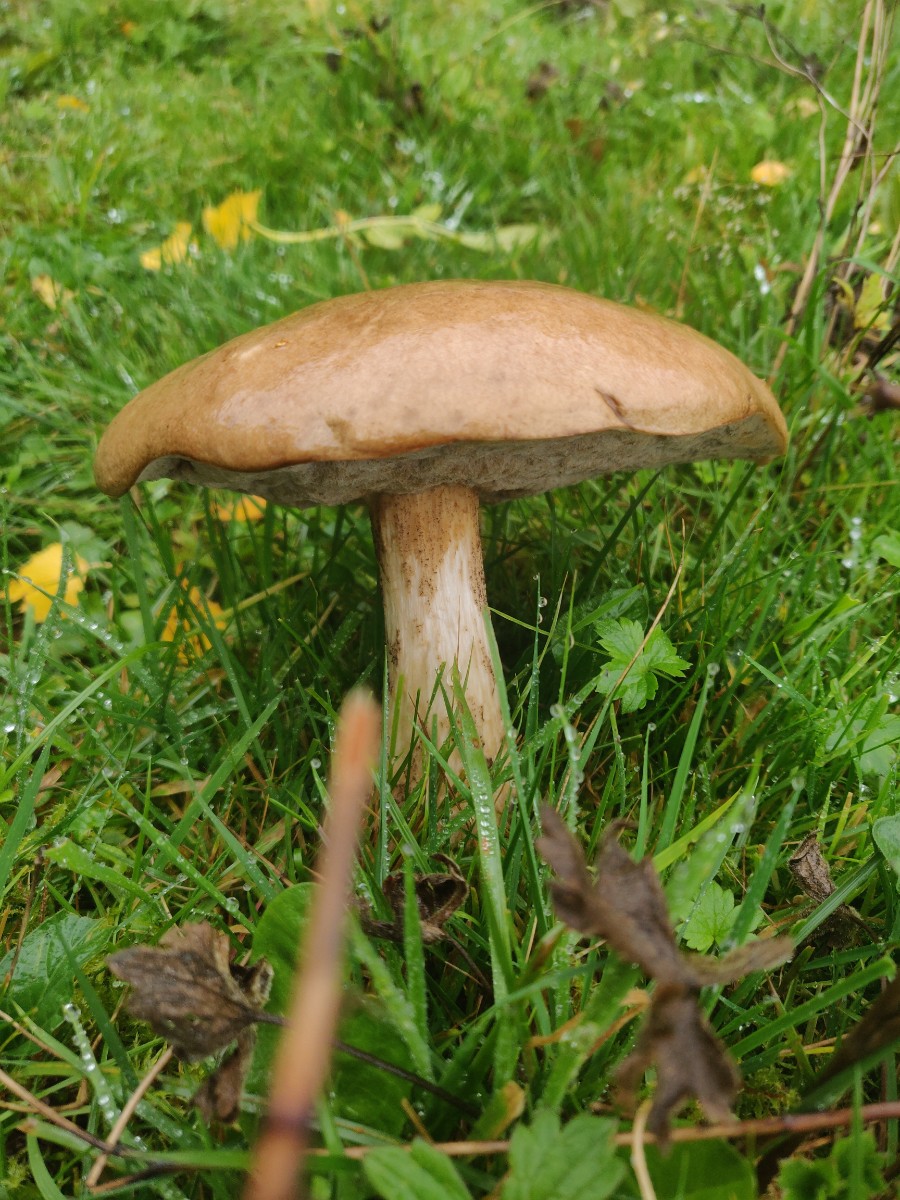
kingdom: Fungi
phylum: Basidiomycota
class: Agaricomycetes
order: Boletales
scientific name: Boletales
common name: rørhatordenen
